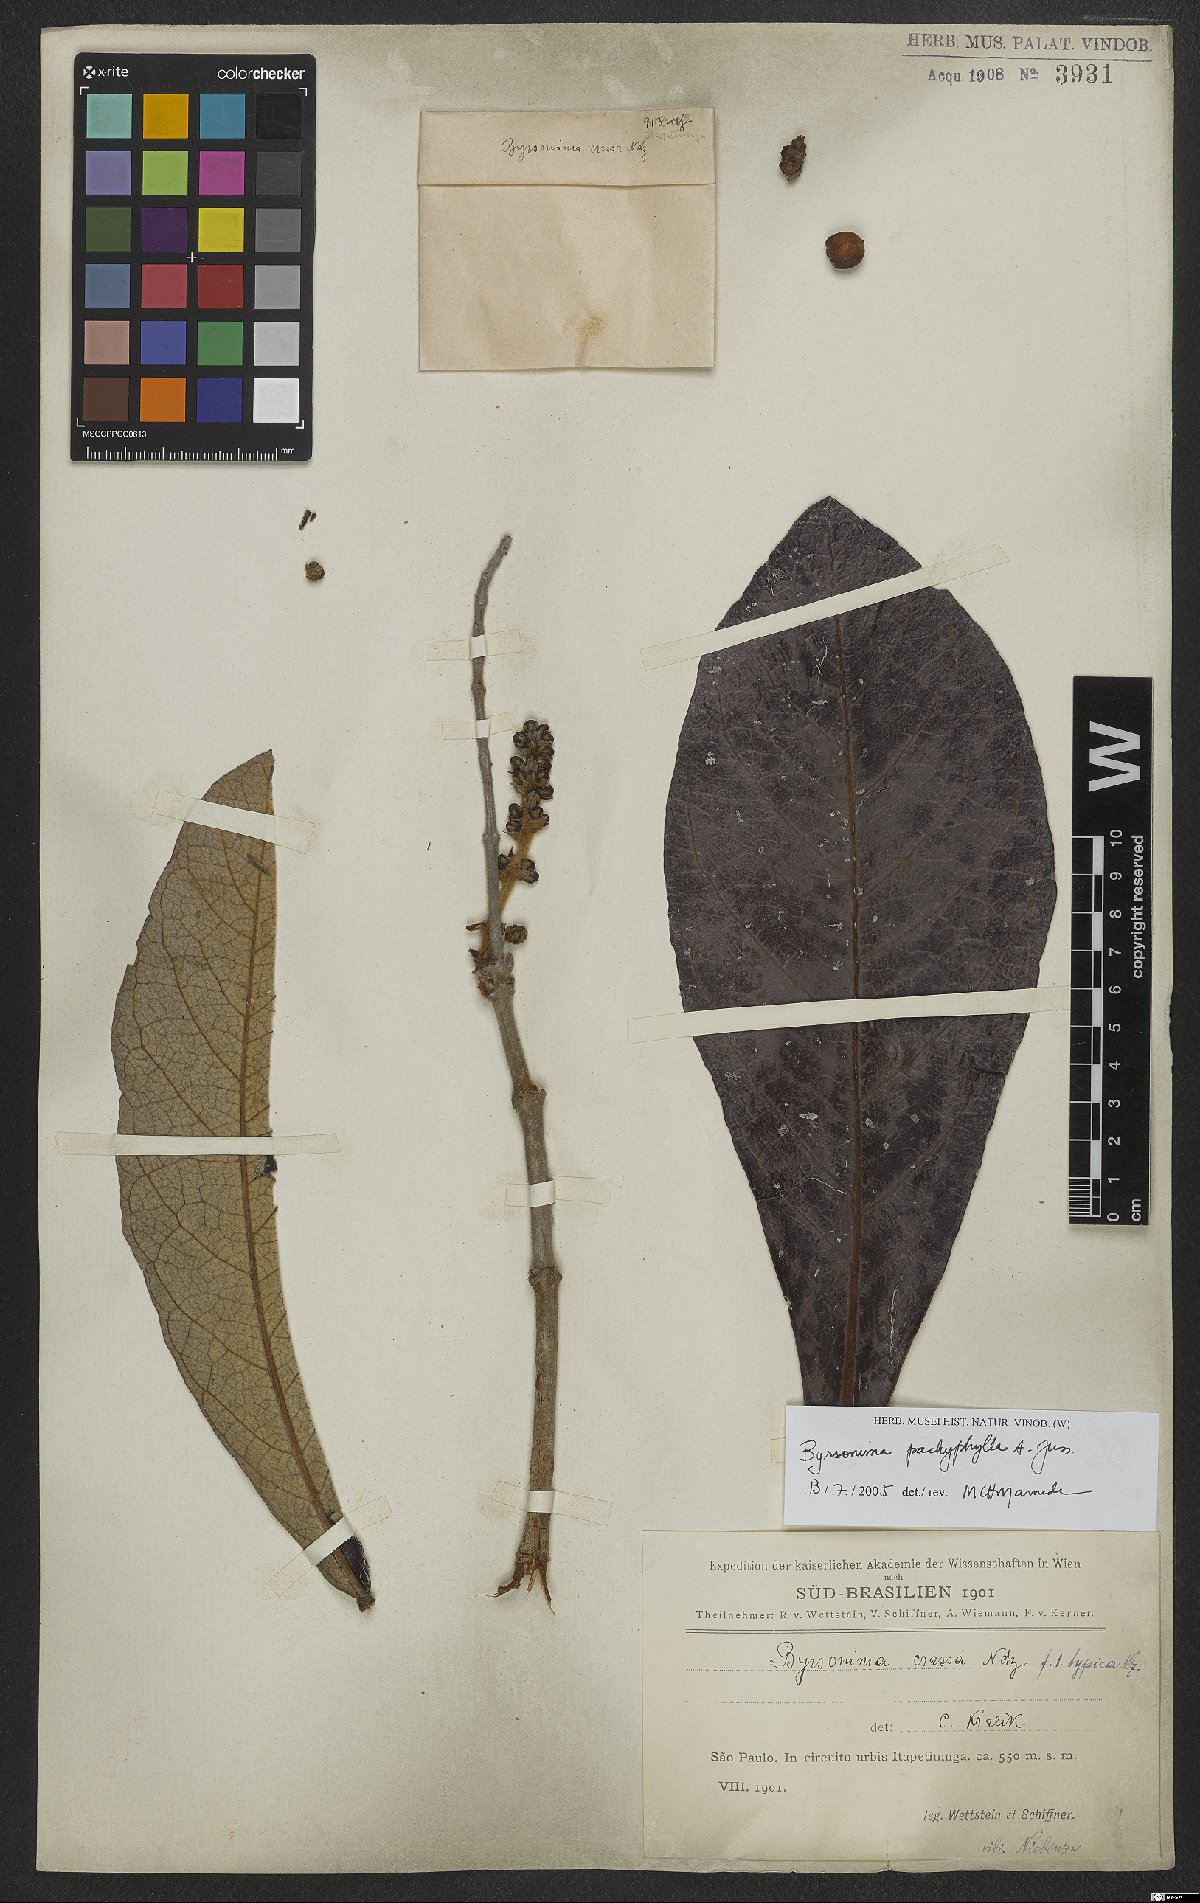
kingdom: Plantae
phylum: Tracheophyta
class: Magnoliopsida
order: Malpighiales
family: Malpighiaceae
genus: Byrsonima
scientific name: Byrsonima pachyphylla
